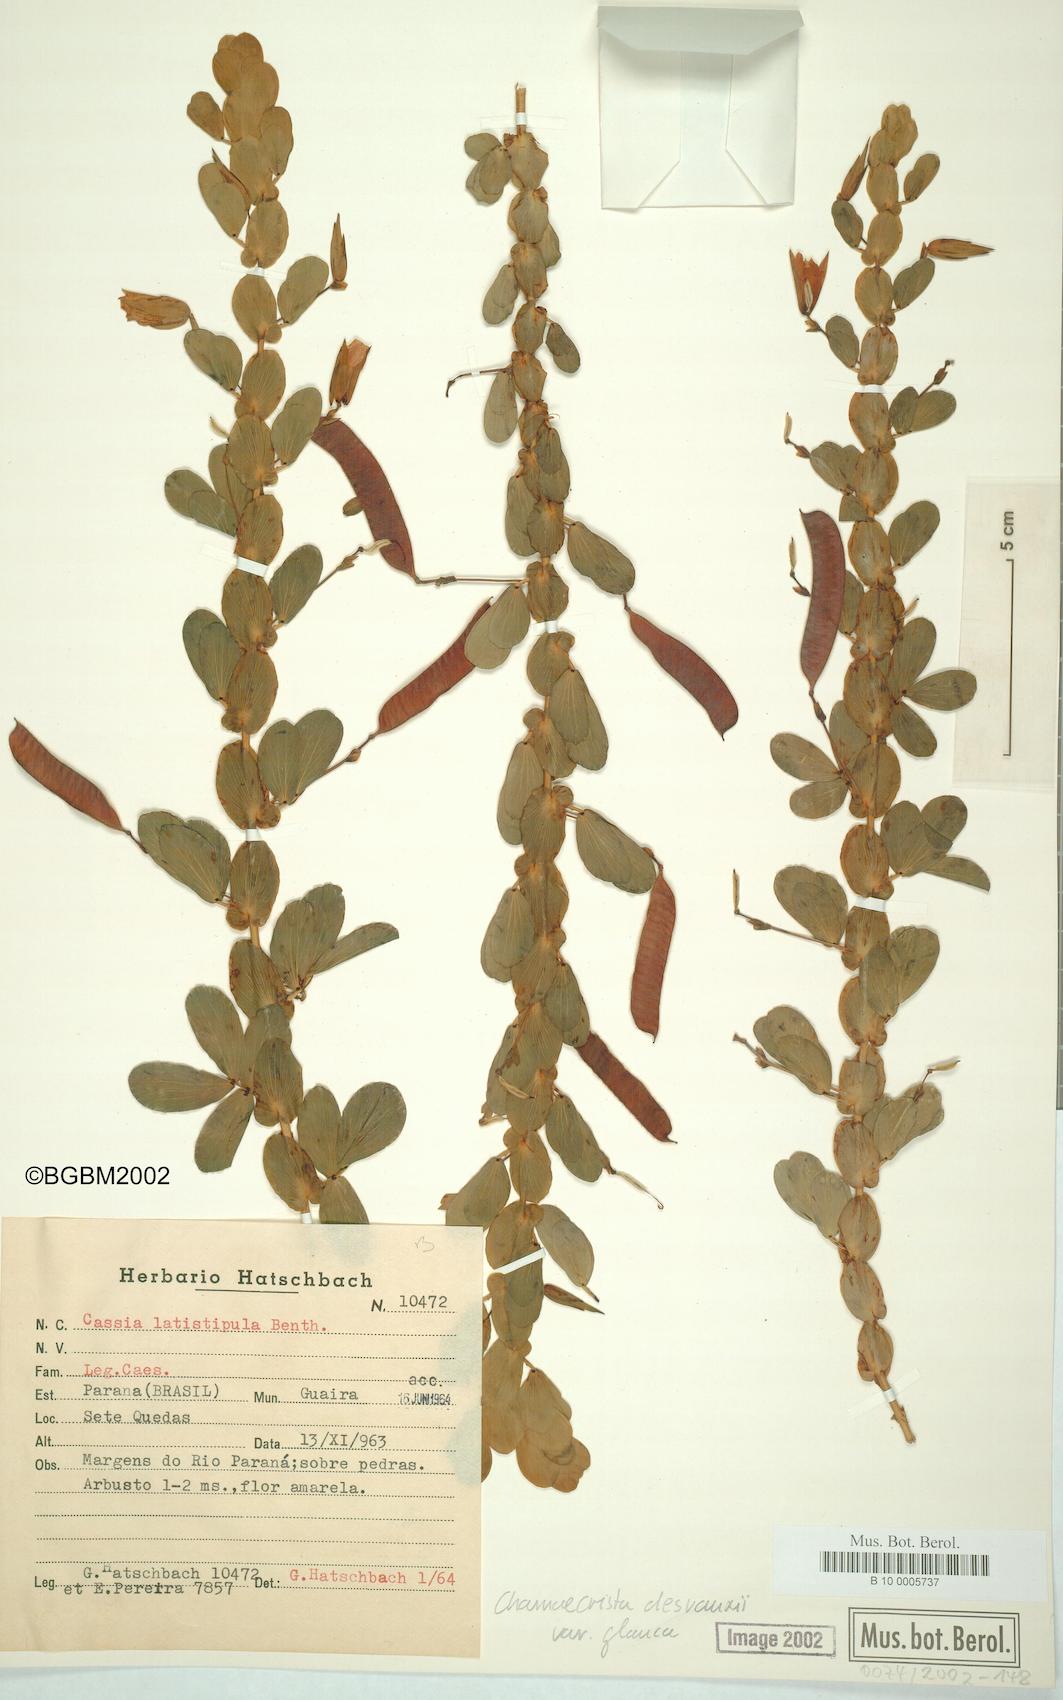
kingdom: Plantae
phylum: Tracheophyta
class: Magnoliopsida
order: Fabales
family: Fabaceae
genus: Chamaecrista
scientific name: Chamaecrista desvauxii
